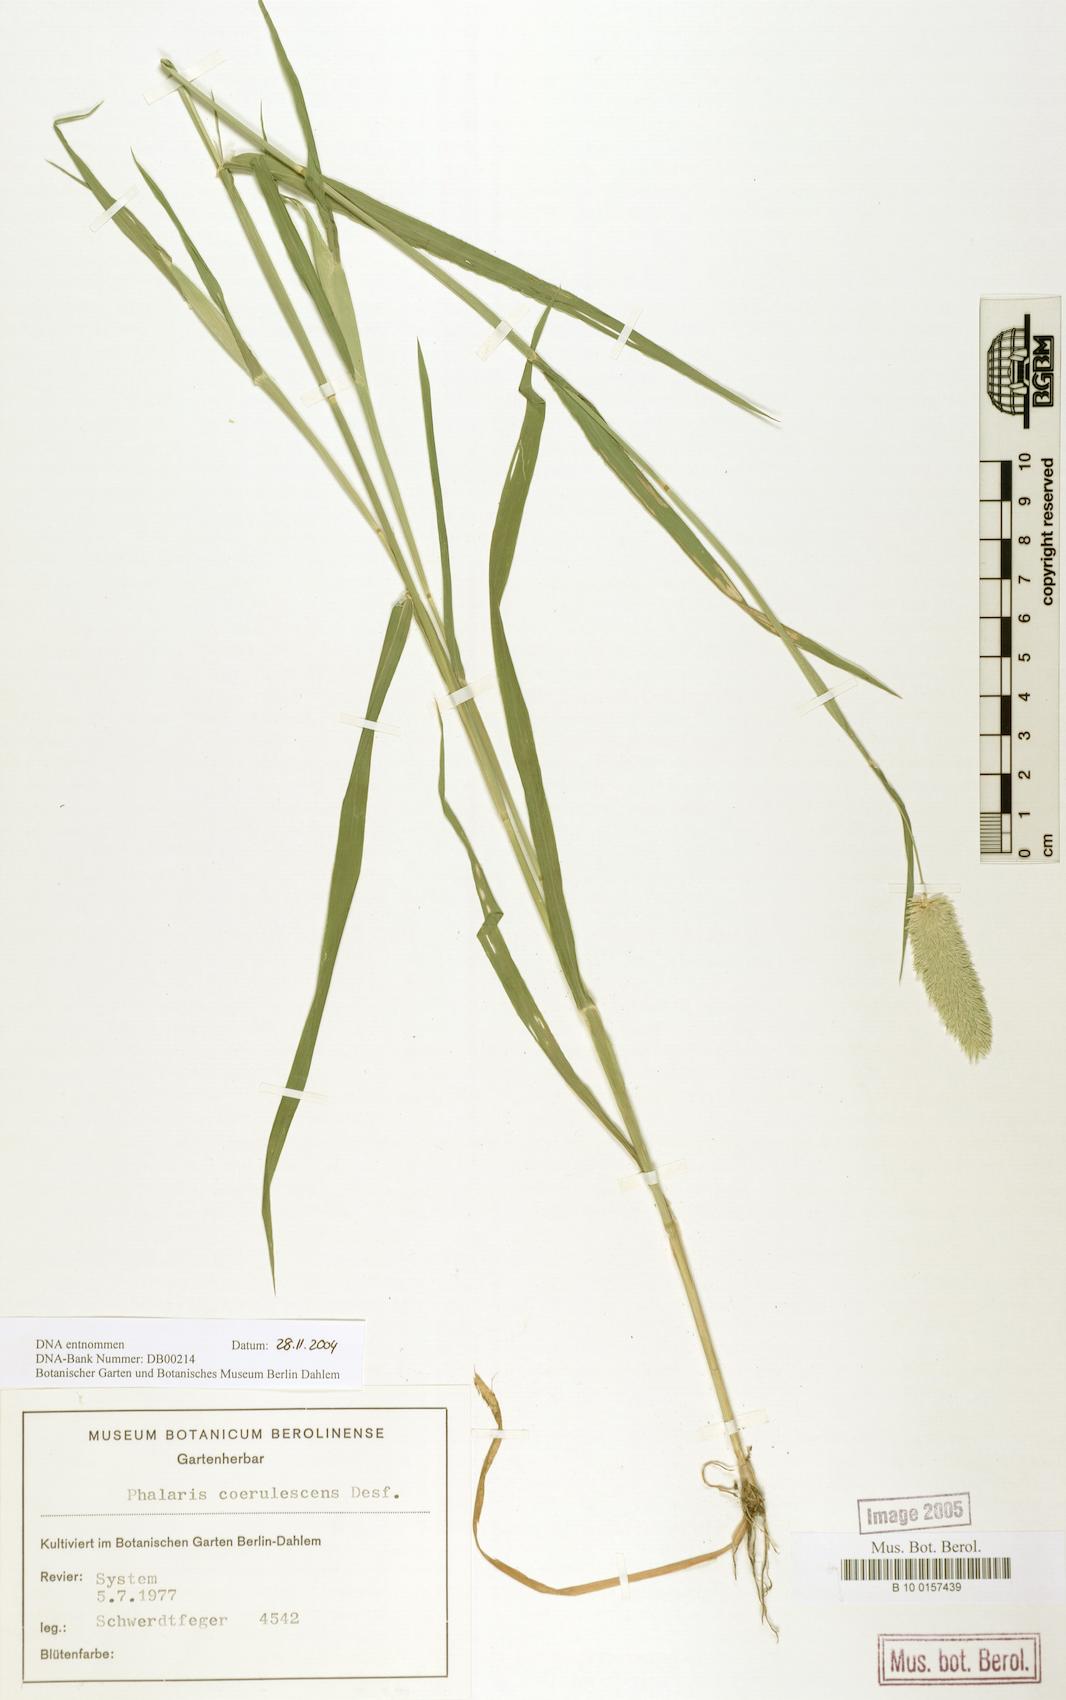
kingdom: Plantae
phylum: Tracheophyta
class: Liliopsida
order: Poales
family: Poaceae
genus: Phalaris
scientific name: Phalaris coerulescens
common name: Sunolgrass
